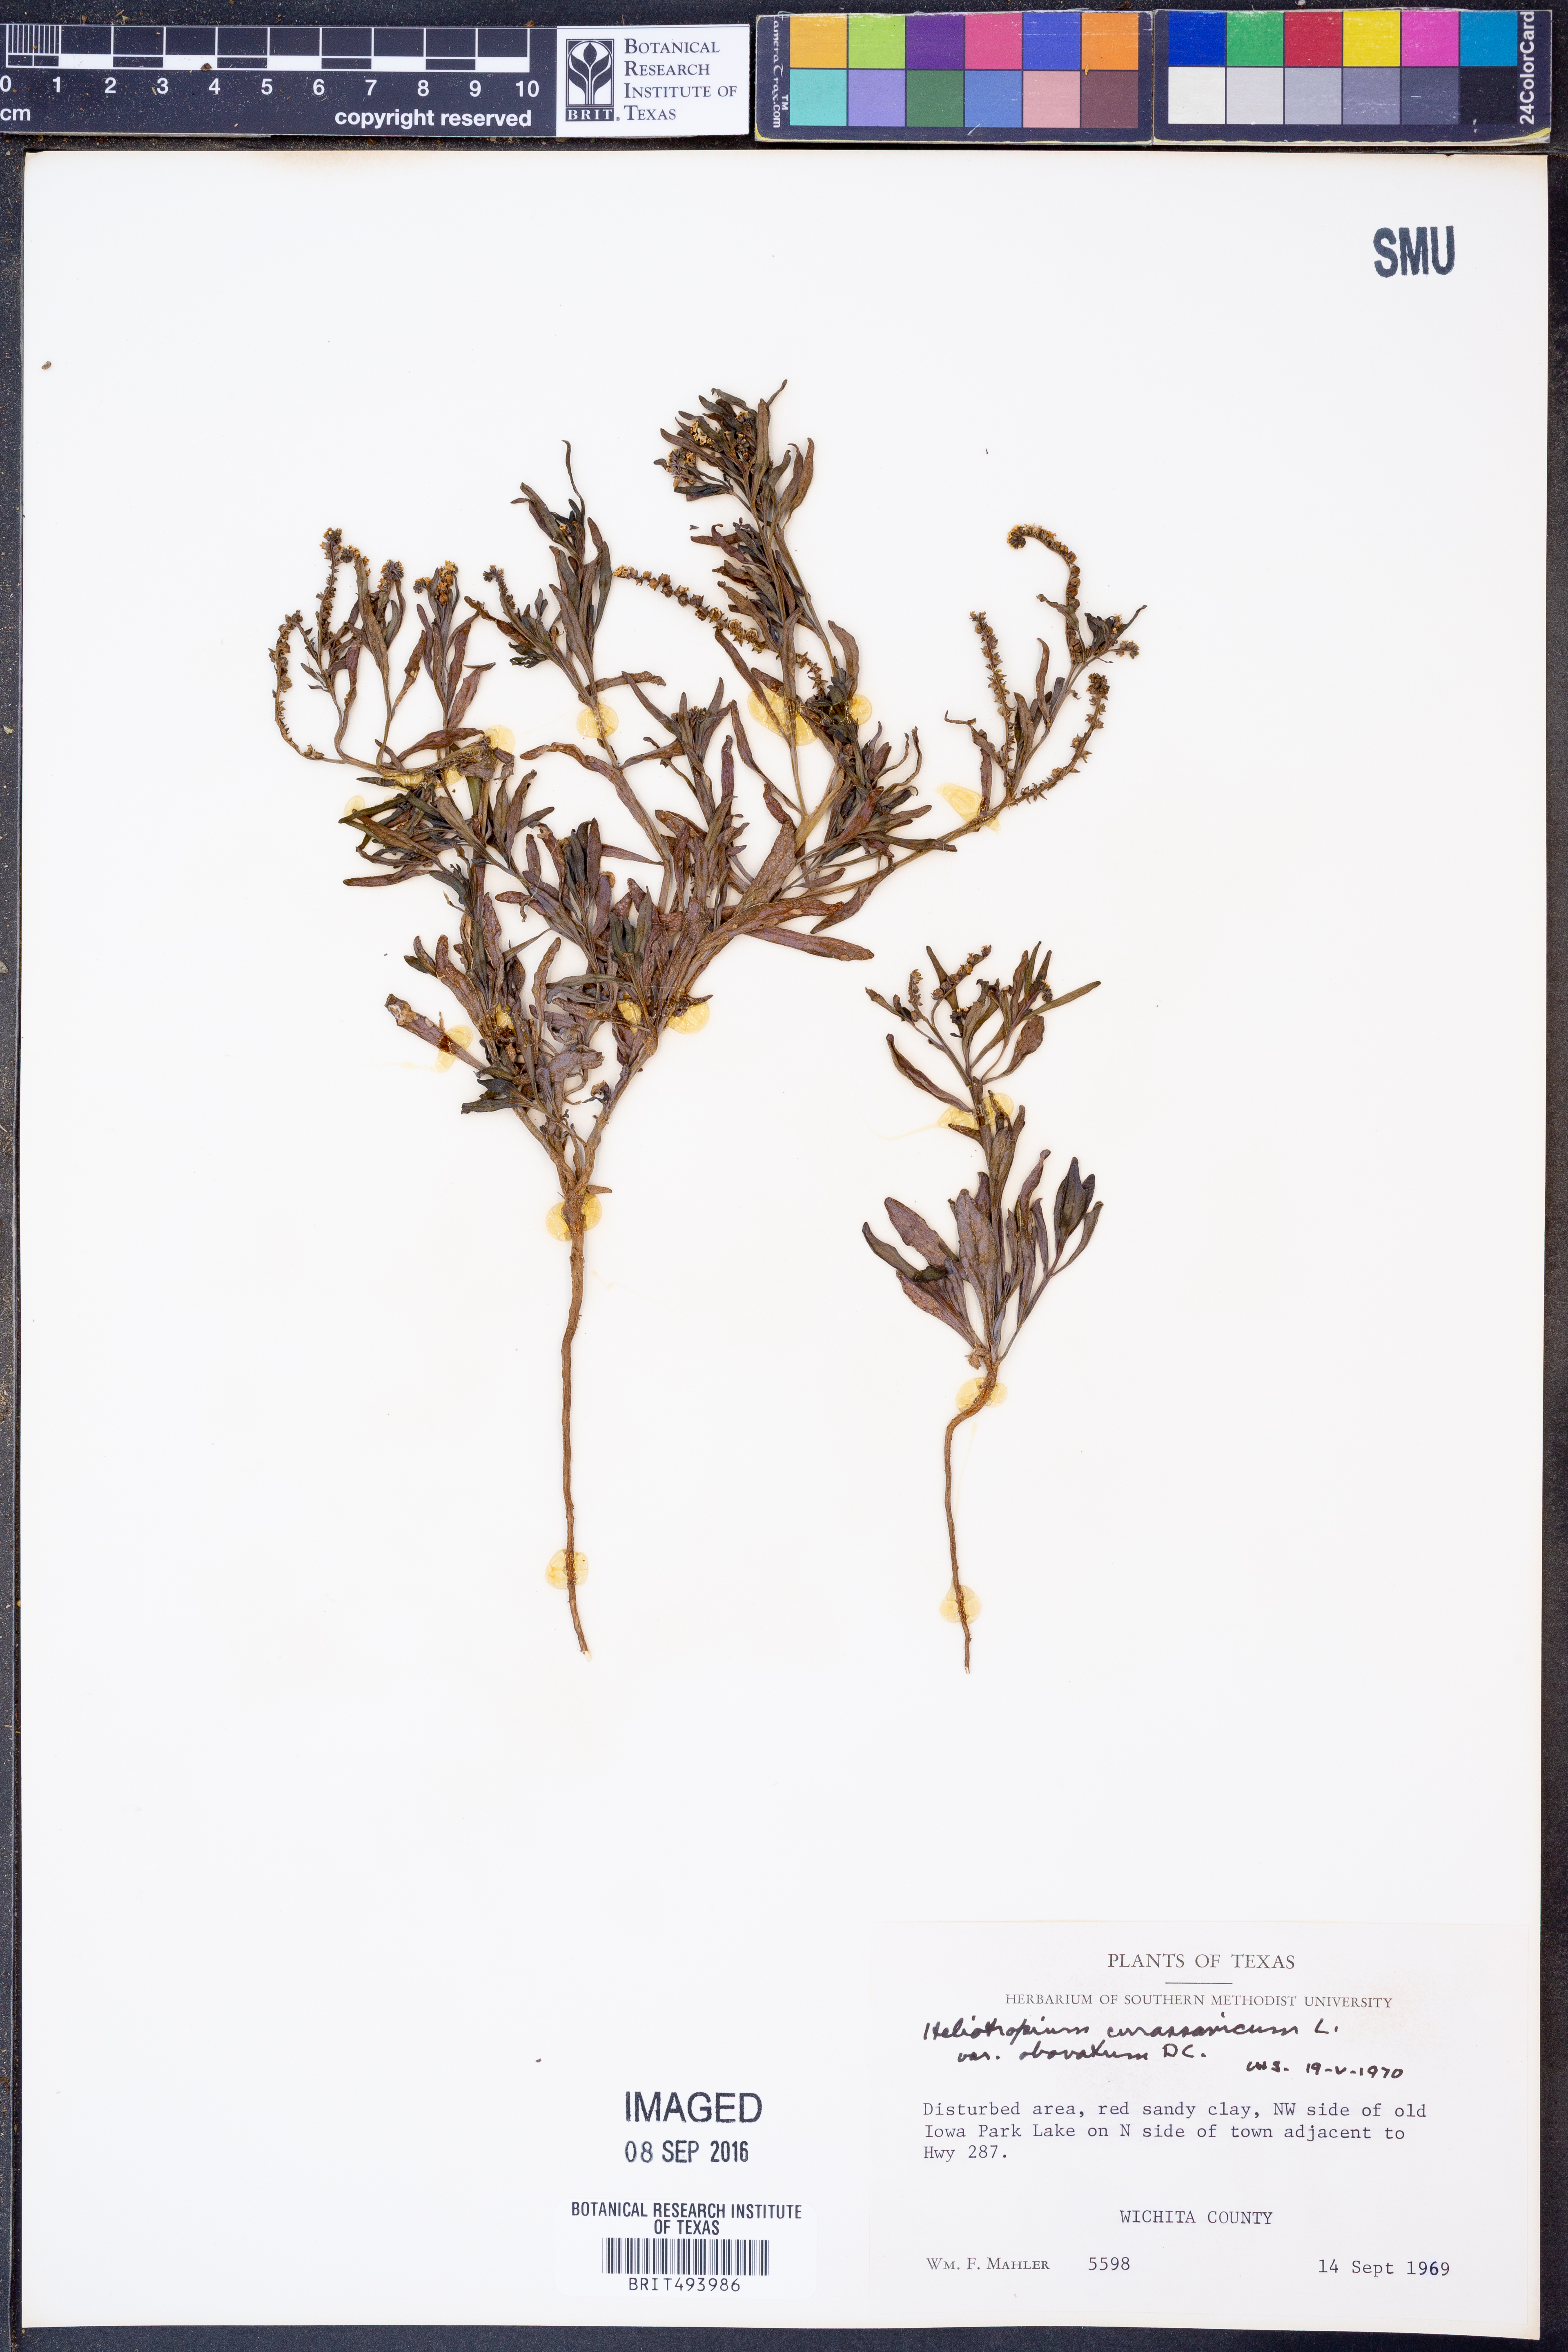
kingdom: Plantae
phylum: Tracheophyta
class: Magnoliopsida
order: Boraginales
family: Heliotropiaceae
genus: Heliotropium
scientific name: Heliotropium curassavicum
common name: Seaside heliotrope
